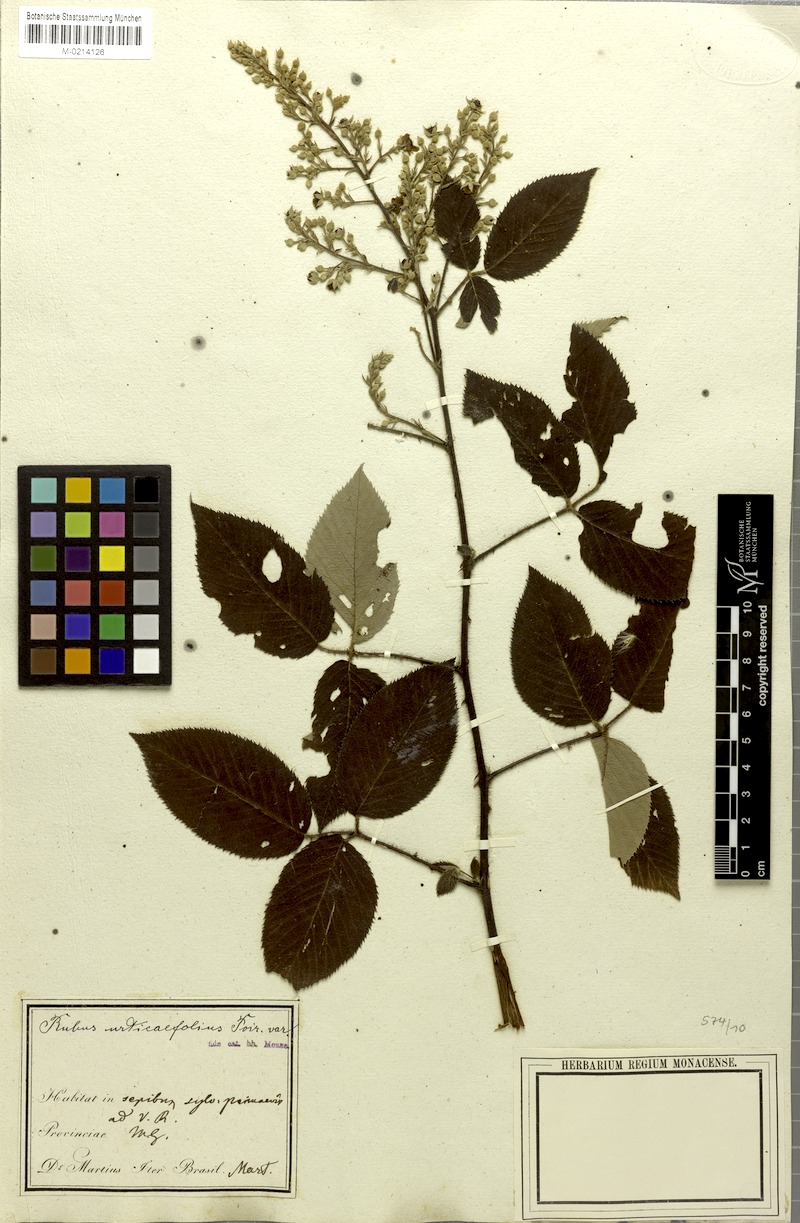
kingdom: Plantae
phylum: Tracheophyta
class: Magnoliopsida
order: Rosales
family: Rosaceae
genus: Rubus
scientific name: Rubus urticifolius
